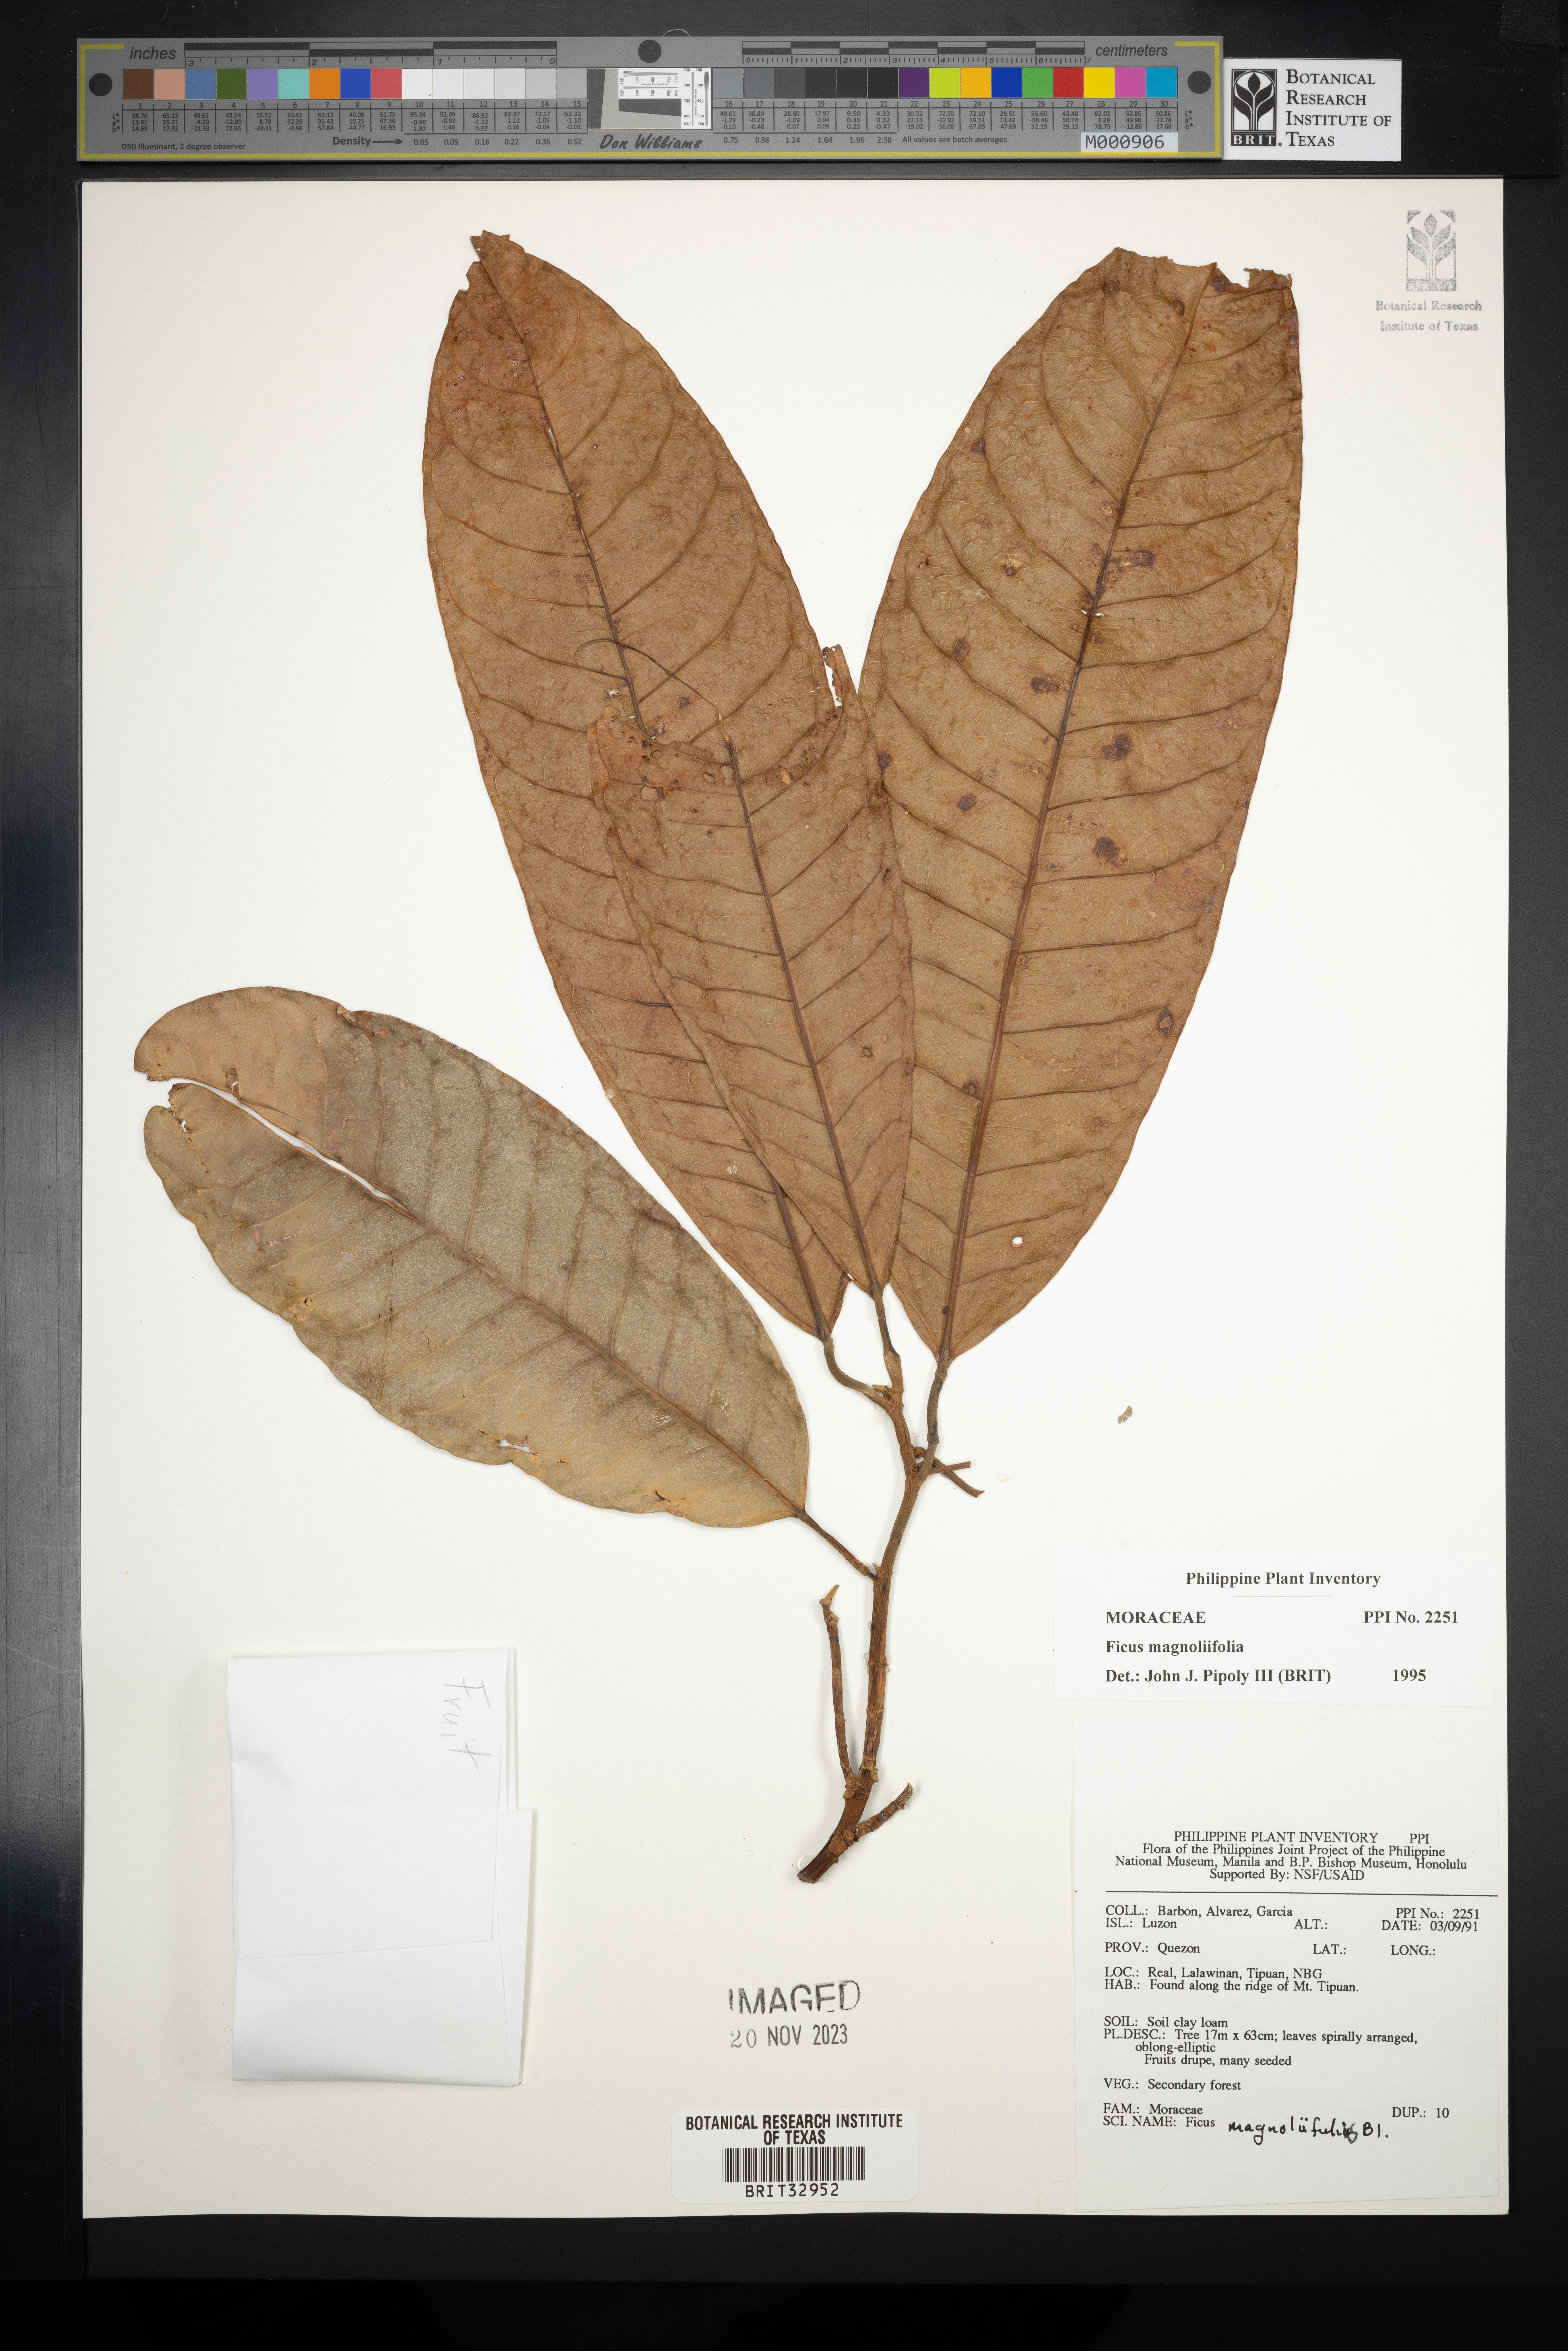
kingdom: Plantae
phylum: Tracheophyta
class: Magnoliopsida
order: Rosales
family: Moraceae
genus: Ficus
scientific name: Ficus magnoliifolia
